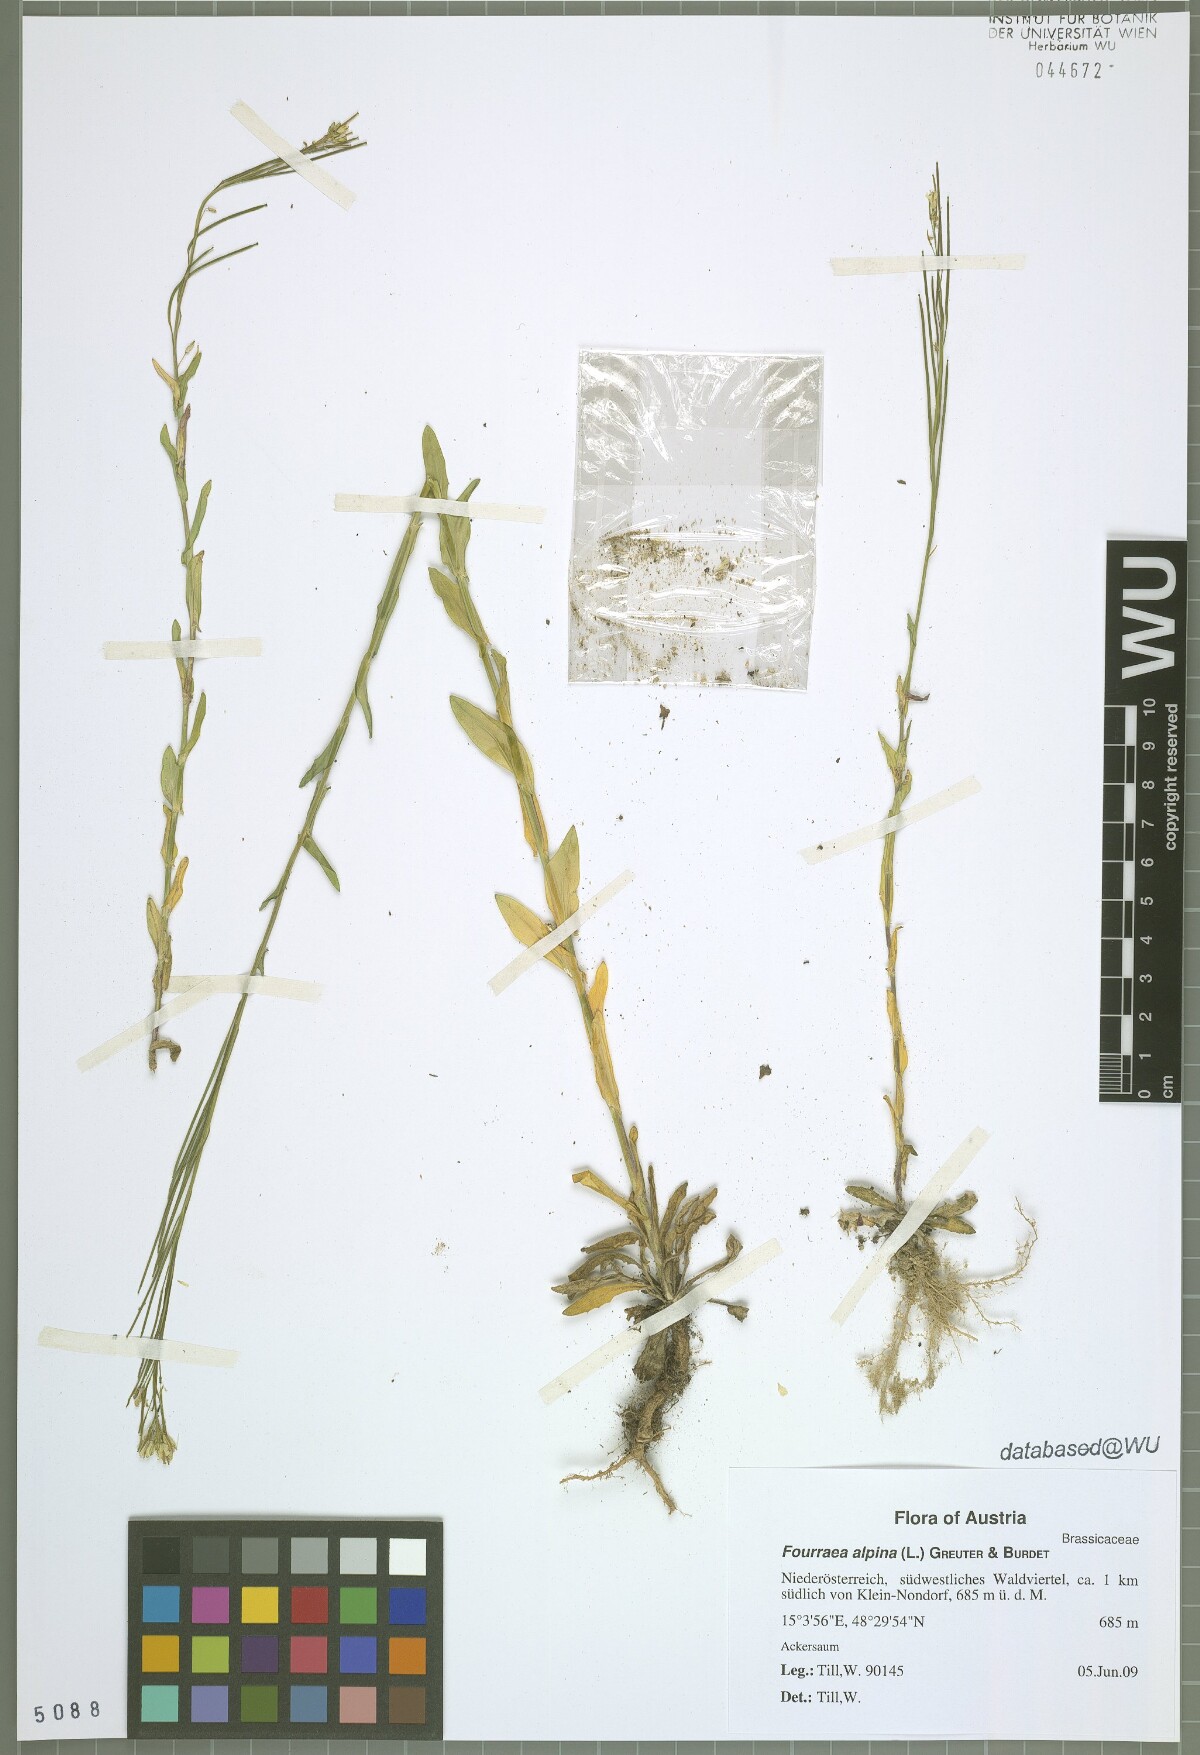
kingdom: Plantae
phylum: Tracheophyta
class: Magnoliopsida
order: Brassicales
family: Brassicaceae
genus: Fourraea
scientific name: Fourraea alpina
